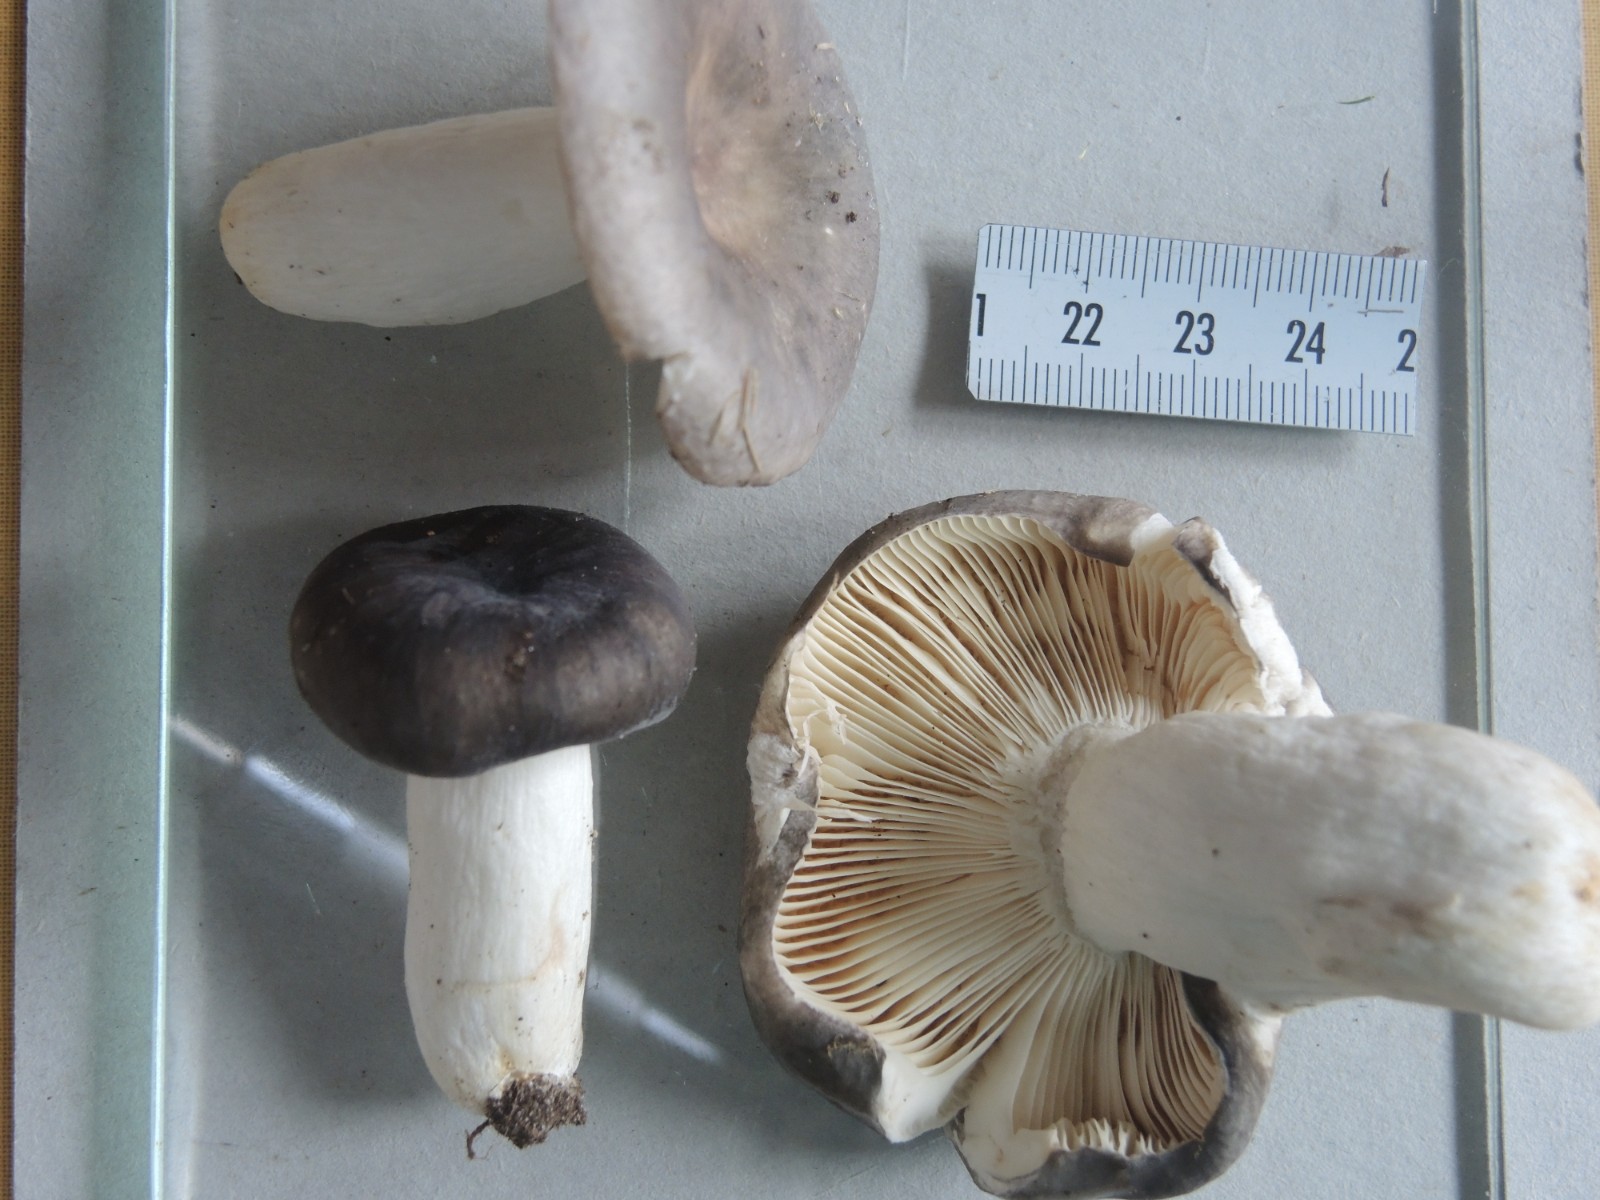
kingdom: Fungi
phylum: Basidiomycota
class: Agaricomycetes
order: Russulales
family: Russulaceae
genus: Russula
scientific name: Russula
